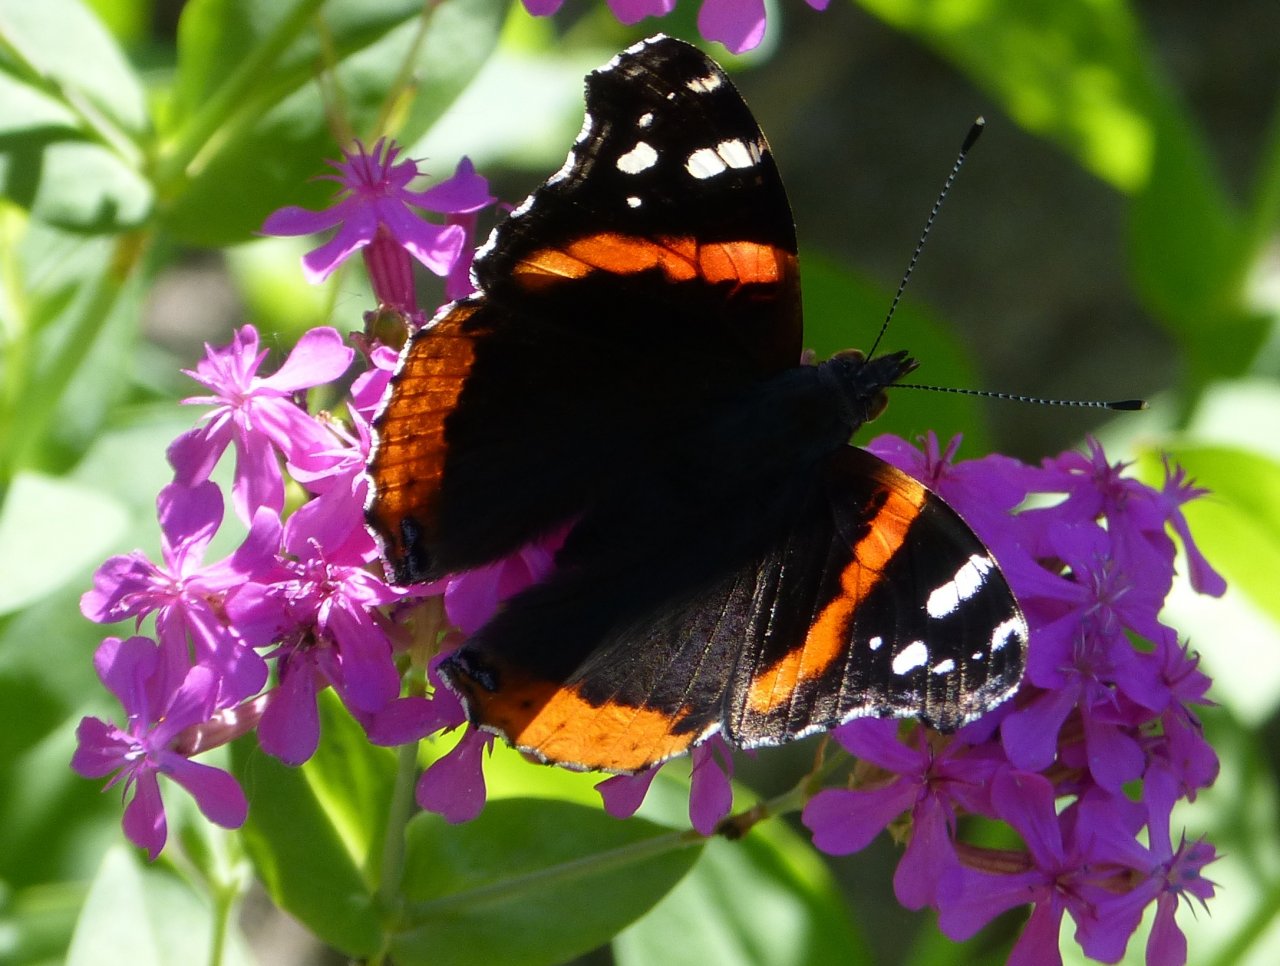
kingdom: Animalia
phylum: Arthropoda
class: Insecta
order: Lepidoptera
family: Nymphalidae
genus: Vanessa
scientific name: Vanessa atalanta
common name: Red Admiral
